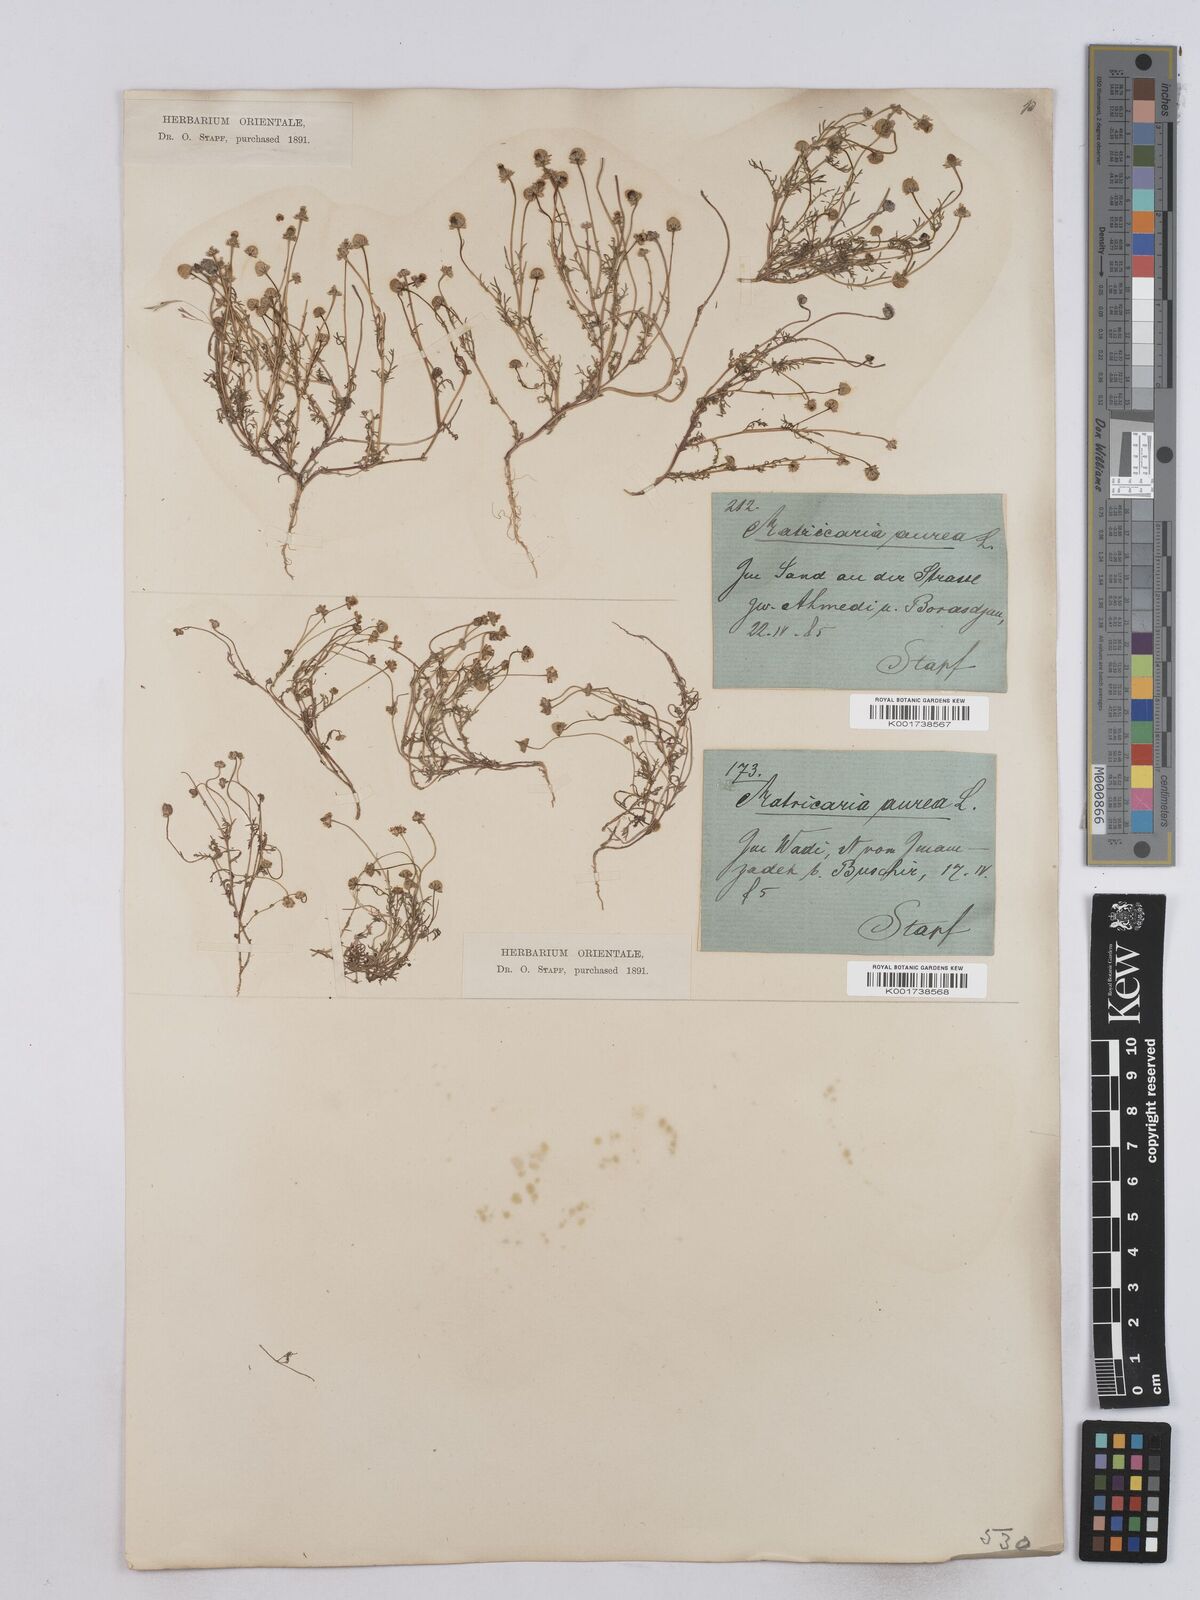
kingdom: Plantae
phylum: Tracheophyta
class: Magnoliopsida
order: Asterales
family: Asteraceae
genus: Matricaria
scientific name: Matricaria aurea
